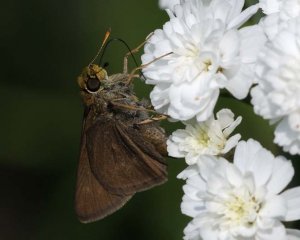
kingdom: Animalia
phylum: Arthropoda
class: Insecta
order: Lepidoptera
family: Hesperiidae
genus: Euphyes
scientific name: Euphyes vestris
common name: Dun Skipper
